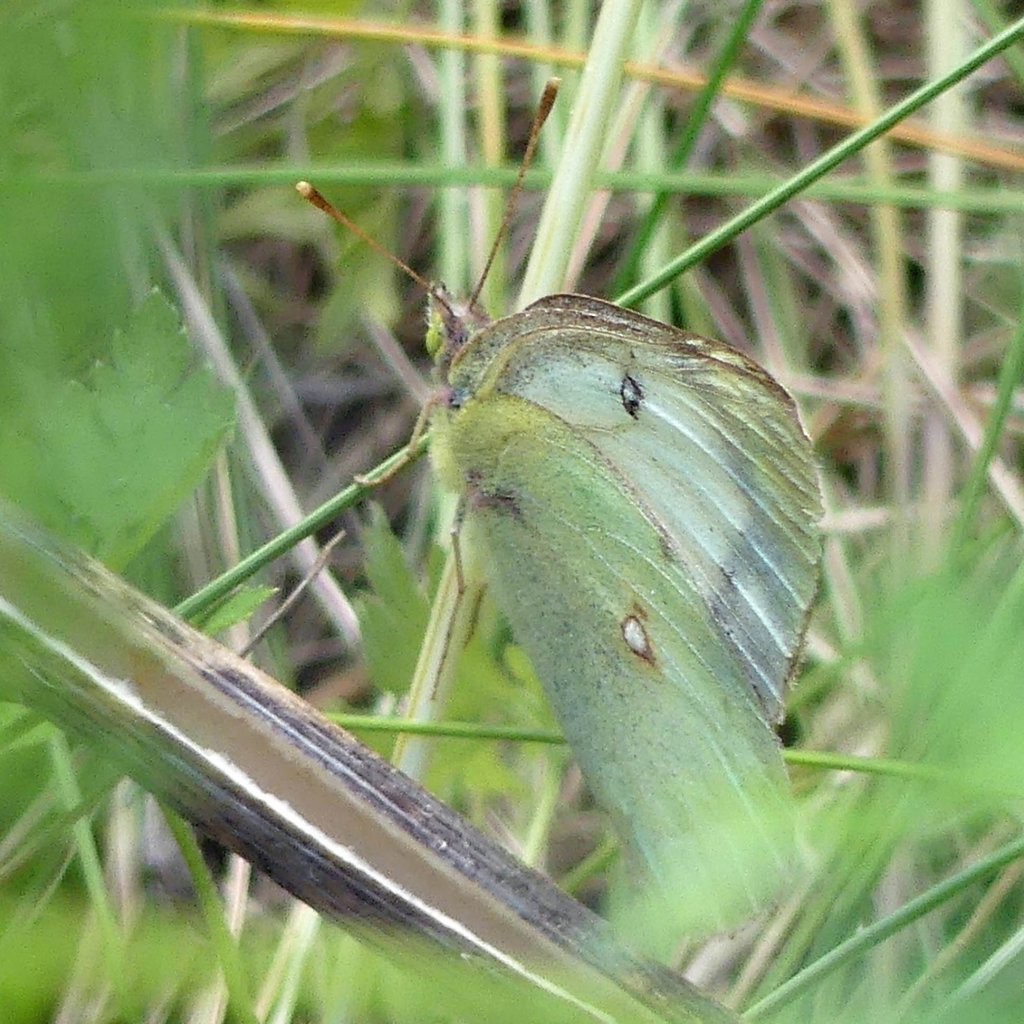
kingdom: Animalia
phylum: Arthropoda
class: Insecta
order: Lepidoptera
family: Pieridae
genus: Colias
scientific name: Colias philodice
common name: Clouded Sulphur
